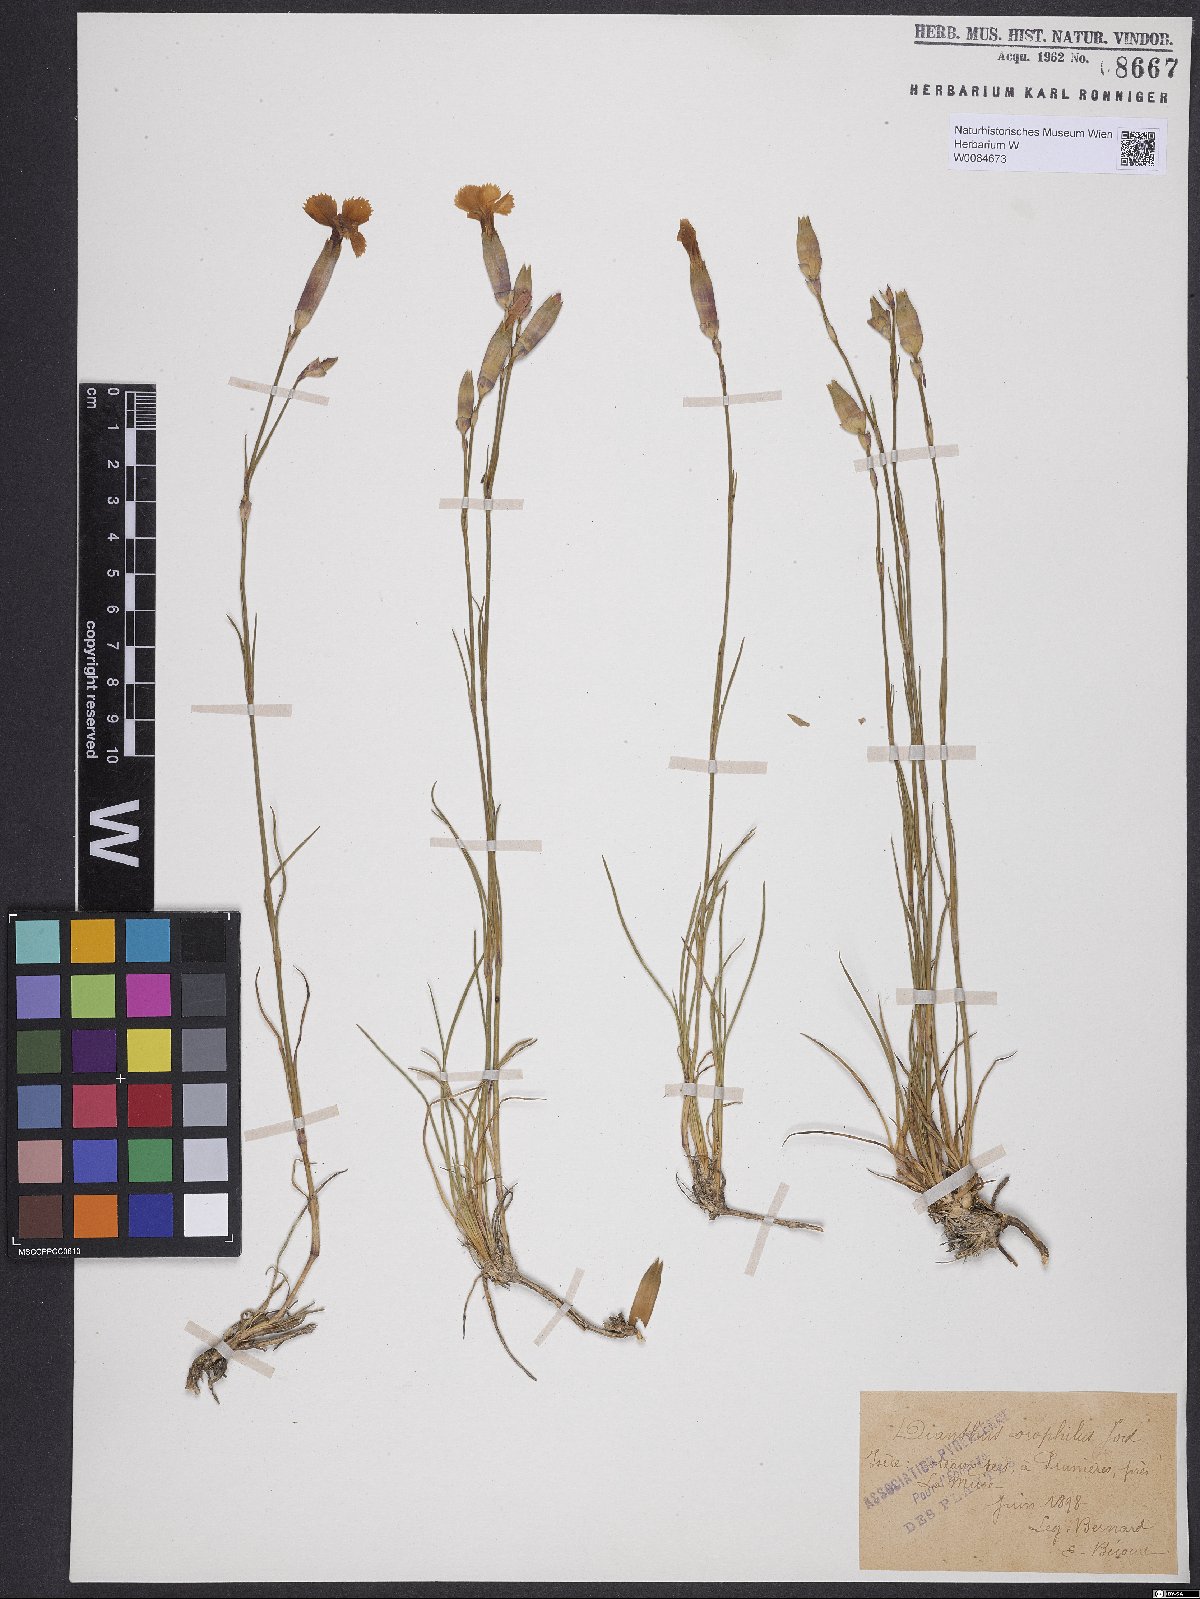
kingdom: Plantae
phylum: Tracheophyta
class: Magnoliopsida
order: Caryophyllales
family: Caryophyllaceae
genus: Dianthus
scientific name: Dianthus sylvestris
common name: Wood pink
